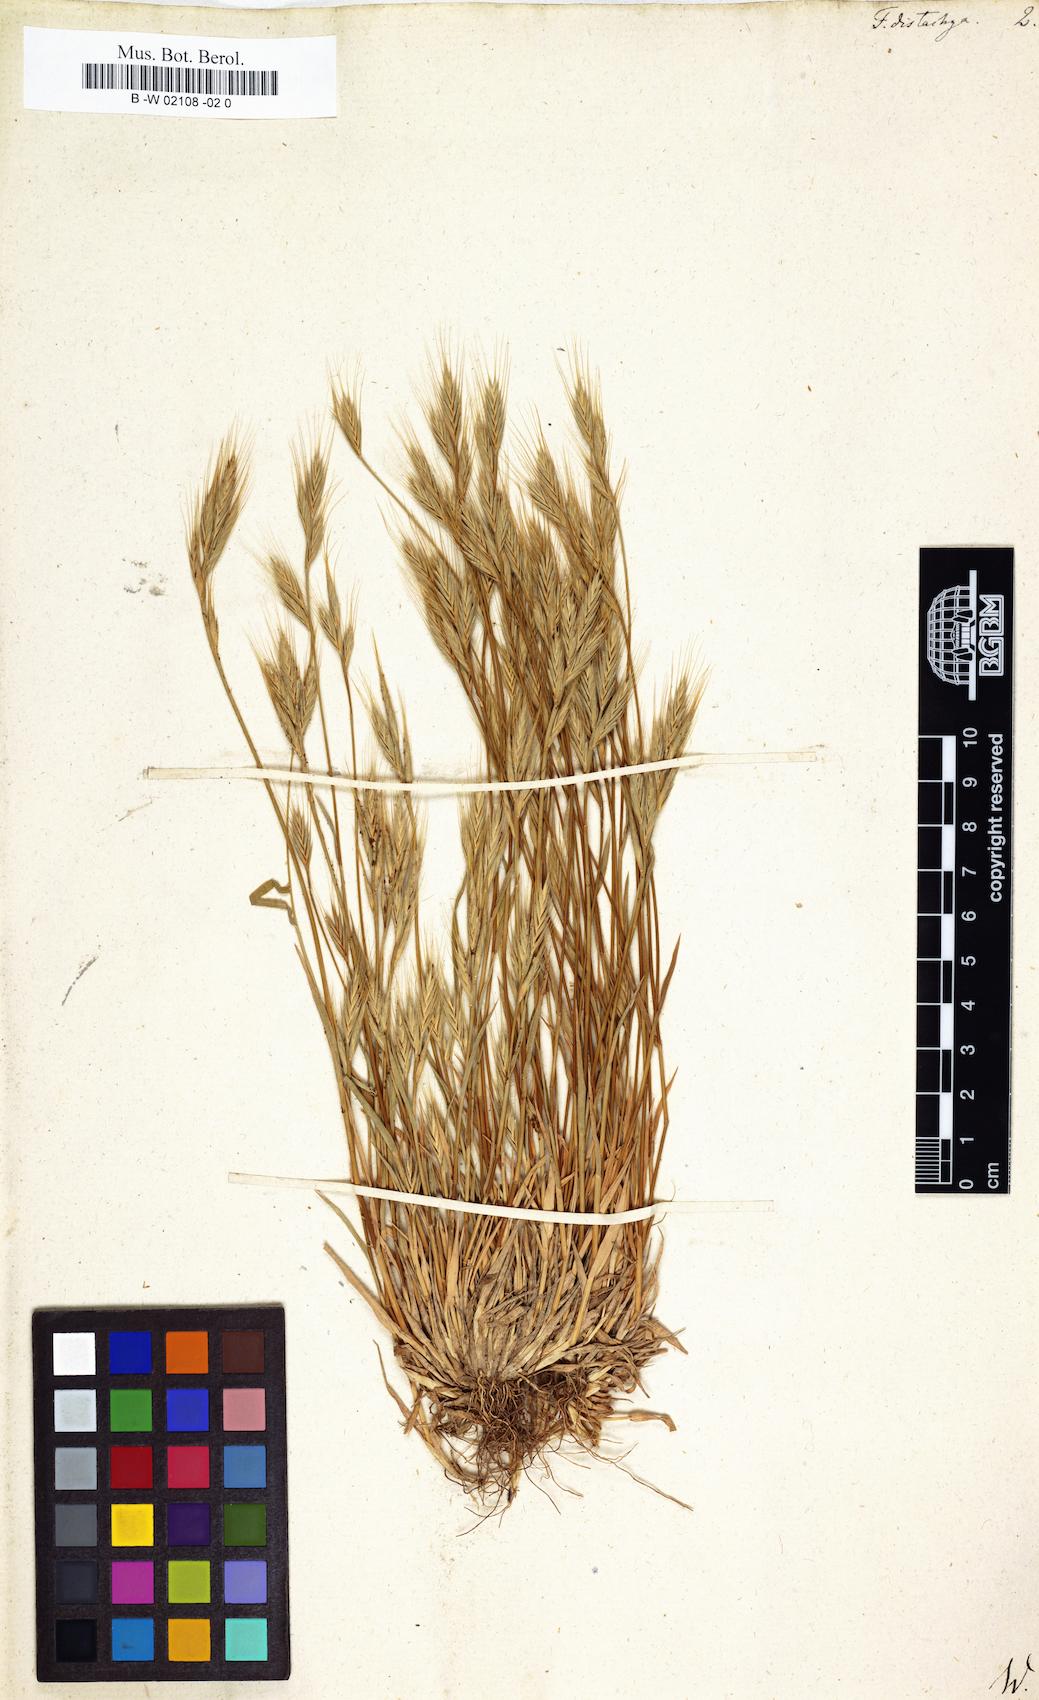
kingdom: Plantae
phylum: Tracheophyta
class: Liliopsida
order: Poales
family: Poaceae
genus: Brachypodium
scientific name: Brachypodium distachyon
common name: Stiff brome
